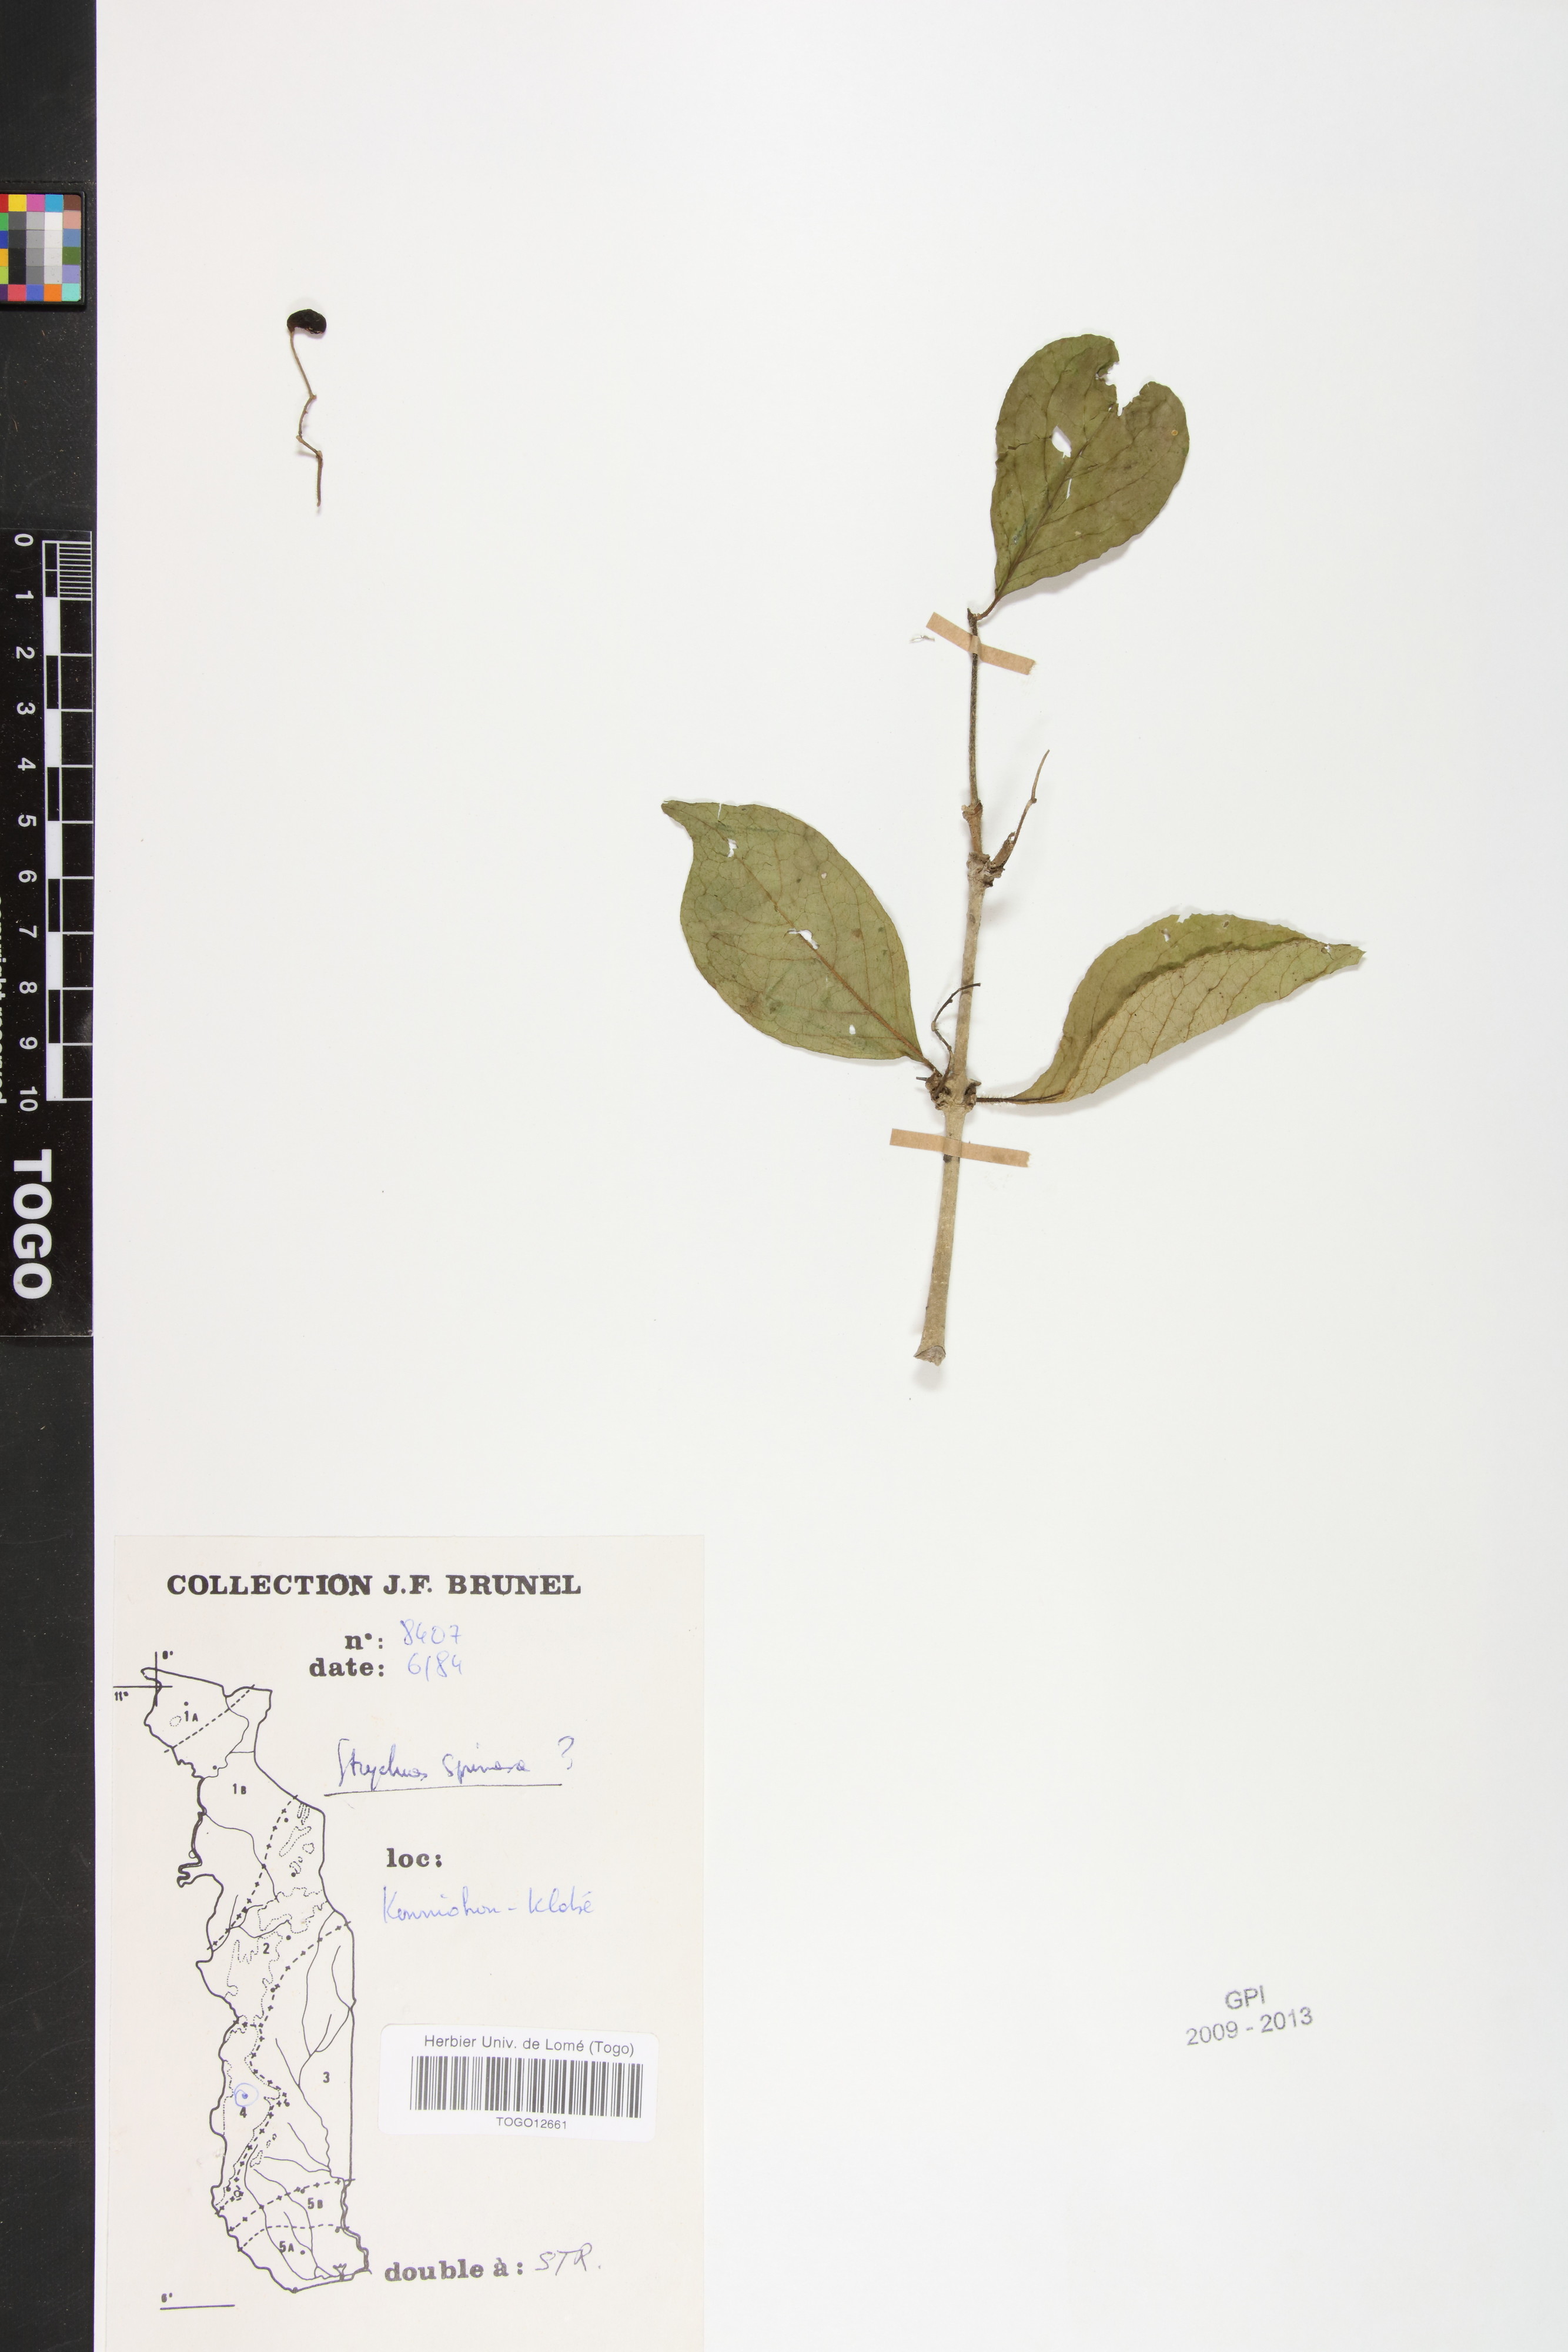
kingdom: Plantae
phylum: Tracheophyta
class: Magnoliopsida
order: Gentianales
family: Loganiaceae
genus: Strychnos
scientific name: Strychnos spinosa
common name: Natal orange
